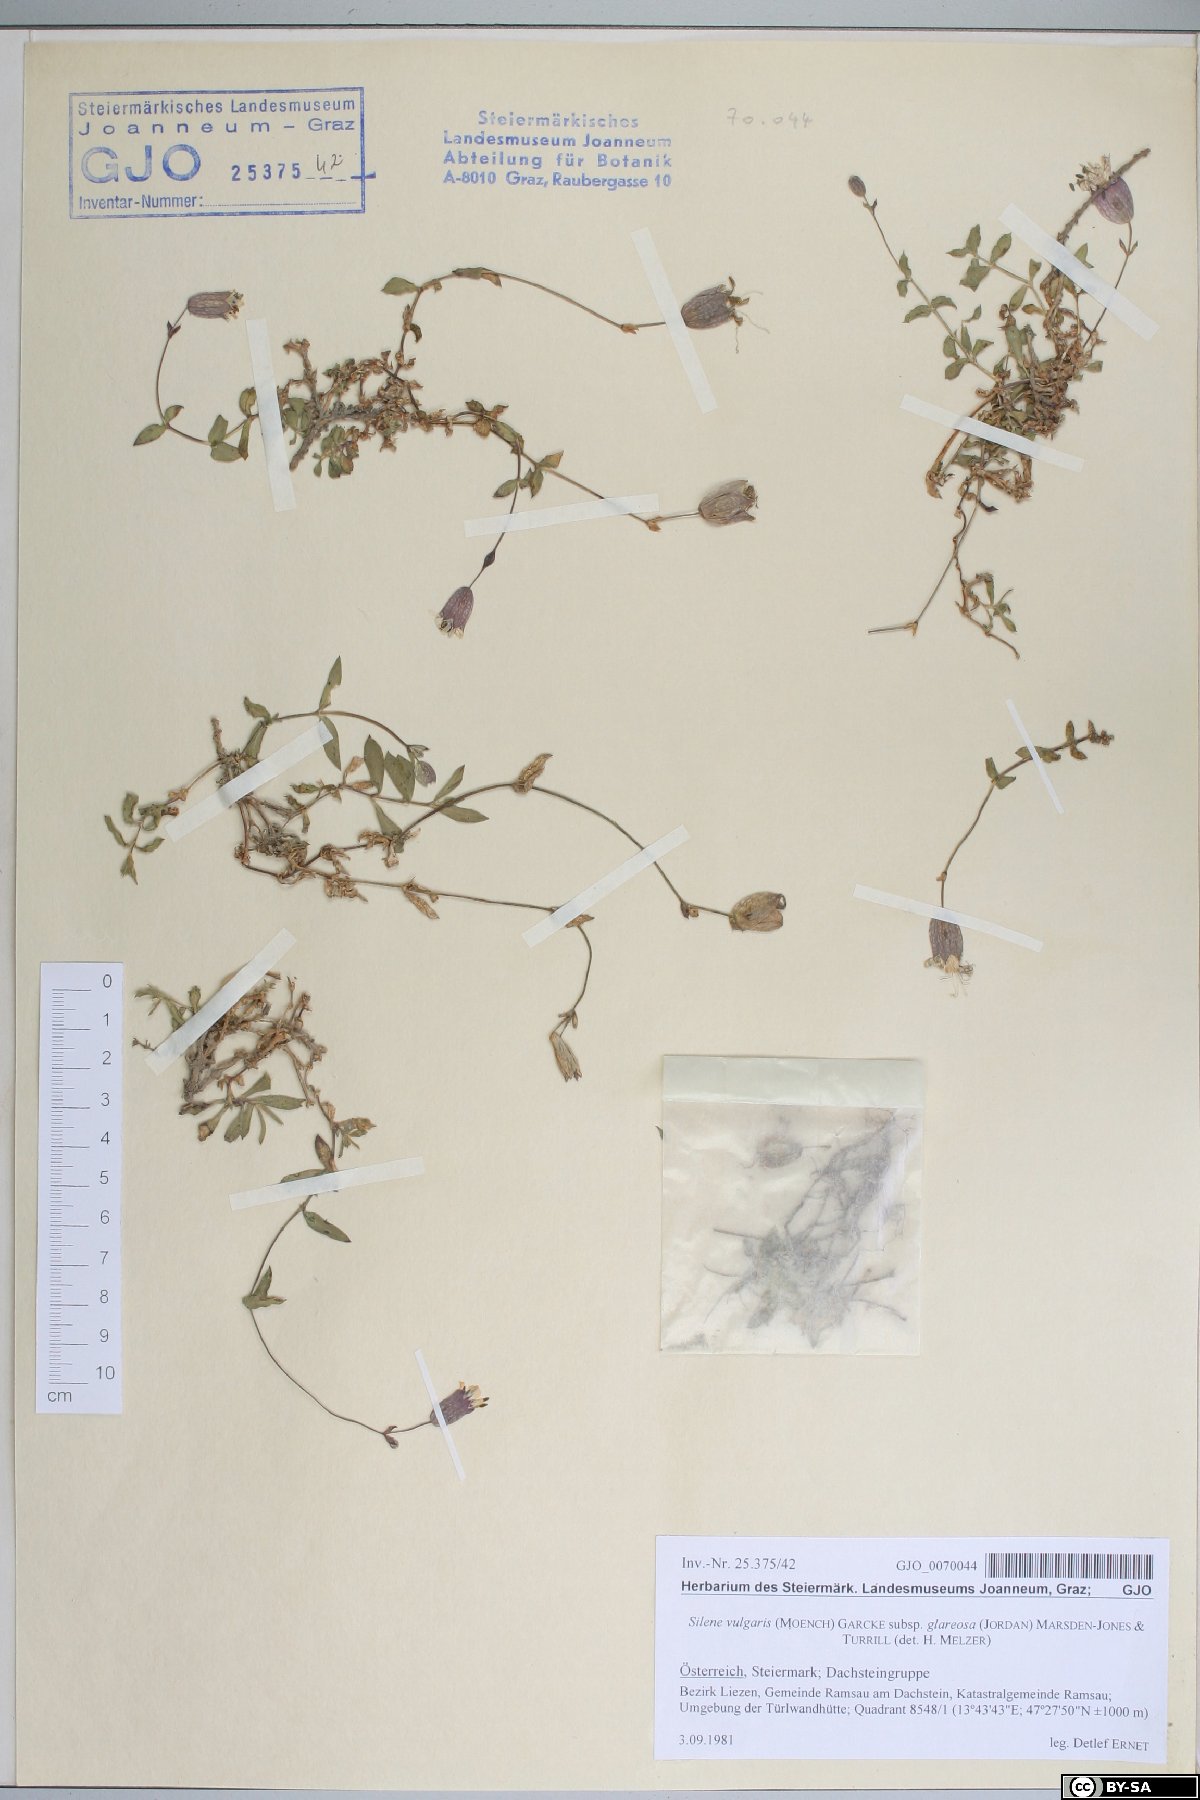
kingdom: Plantae
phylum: Tracheophyta
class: Magnoliopsida
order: Caryophyllales
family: Caryophyllaceae
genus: Silene
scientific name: Silene glareosa
